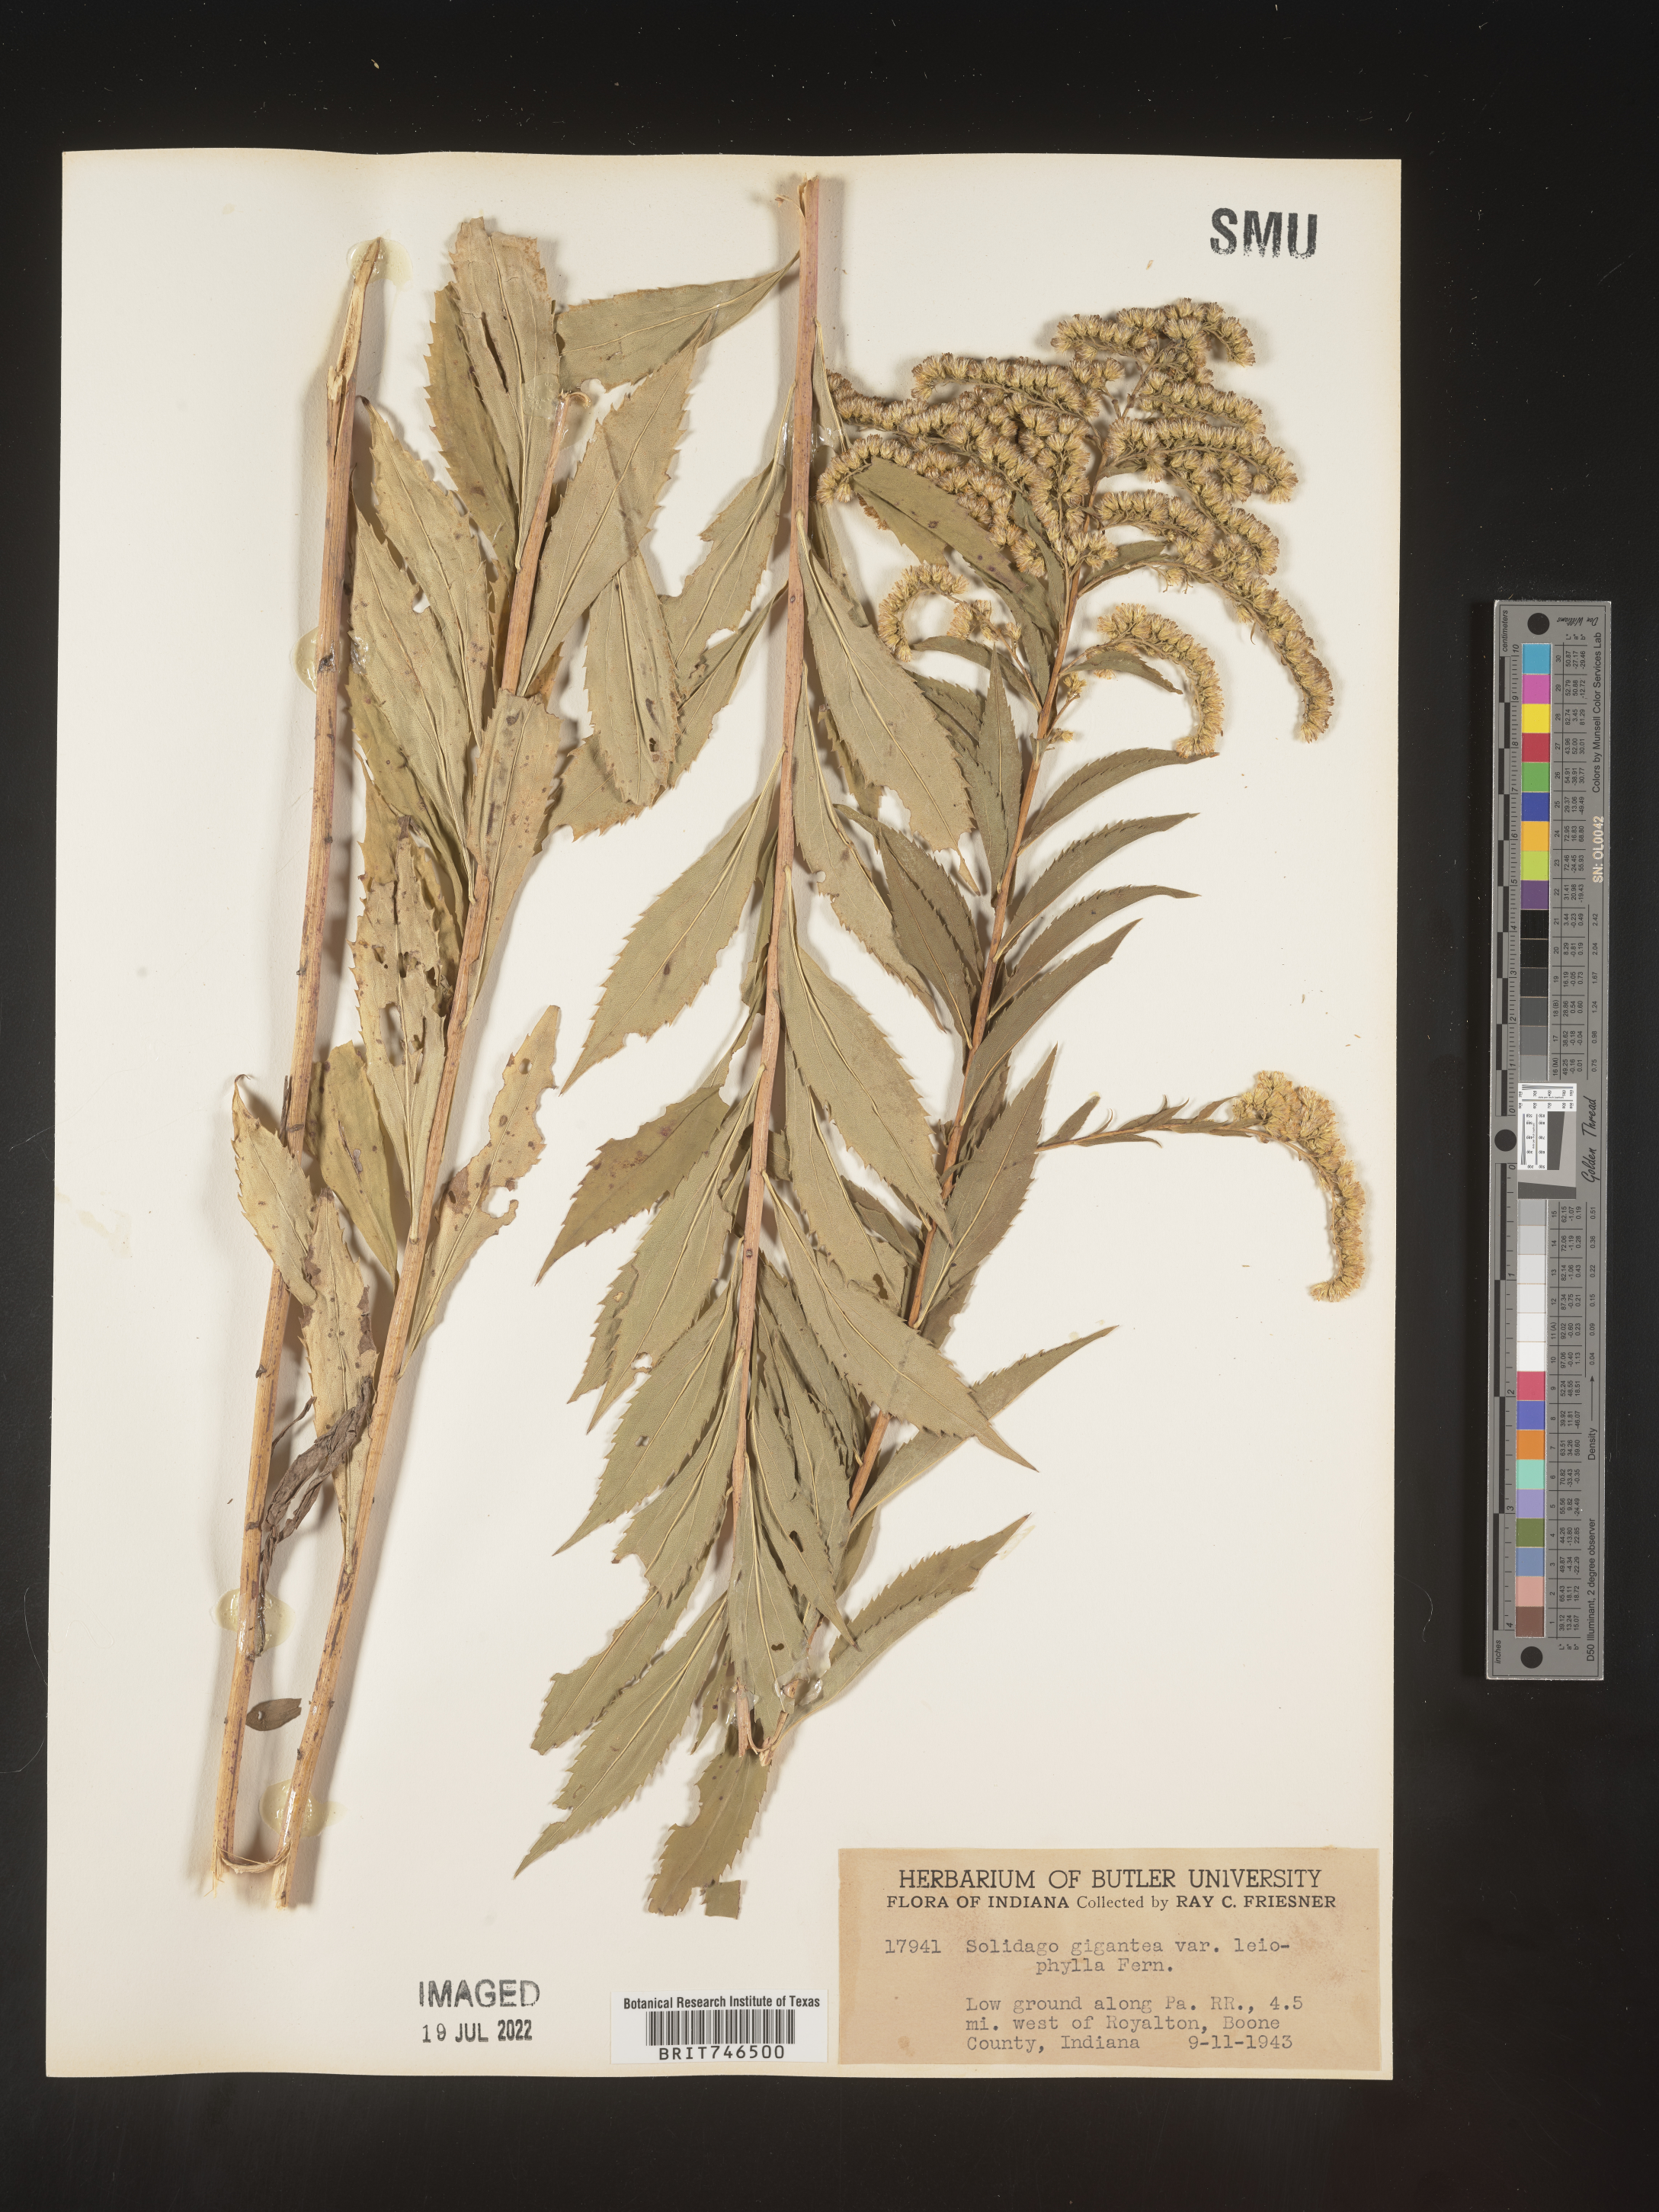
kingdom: Plantae
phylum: Tracheophyta
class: Magnoliopsida
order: Asterales
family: Asteraceae
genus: Solidago
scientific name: Solidago gigantea
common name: Giant goldenrod
